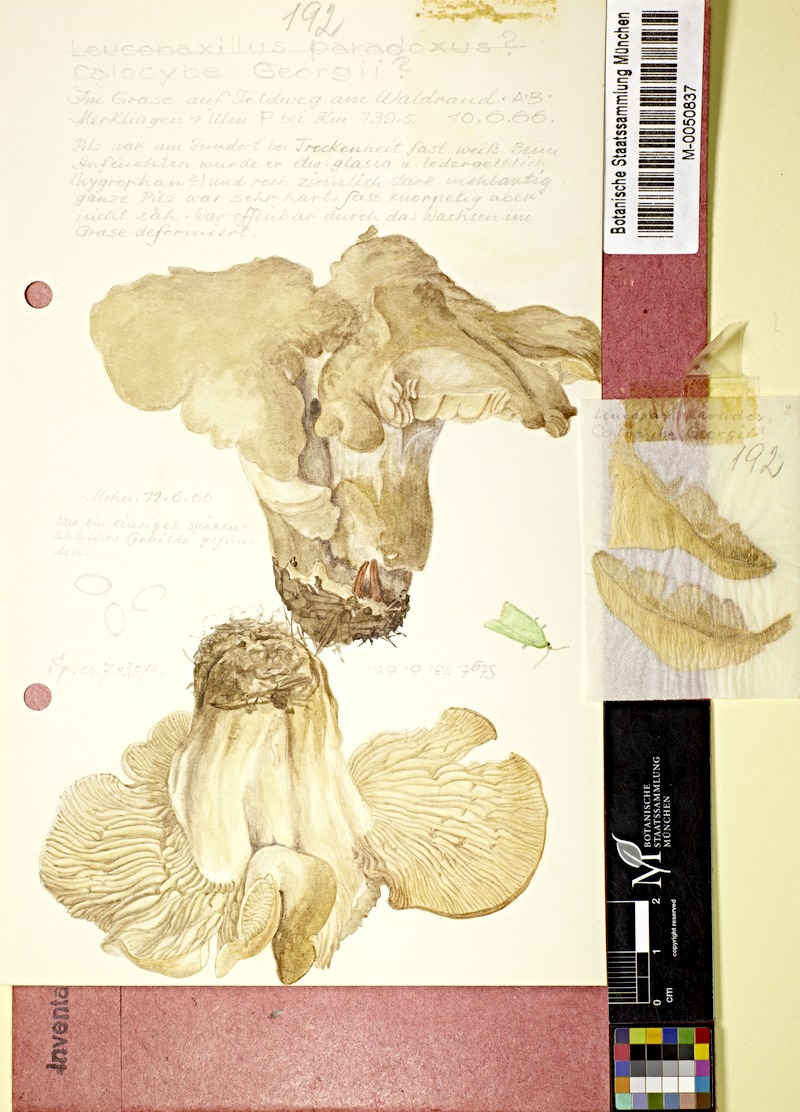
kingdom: Fungi
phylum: Basidiomycota
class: Agaricomycetes
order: Agaricales
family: Lyophyllaceae
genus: Calocybe
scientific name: Calocybe gambosa
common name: St. george's mushroom
